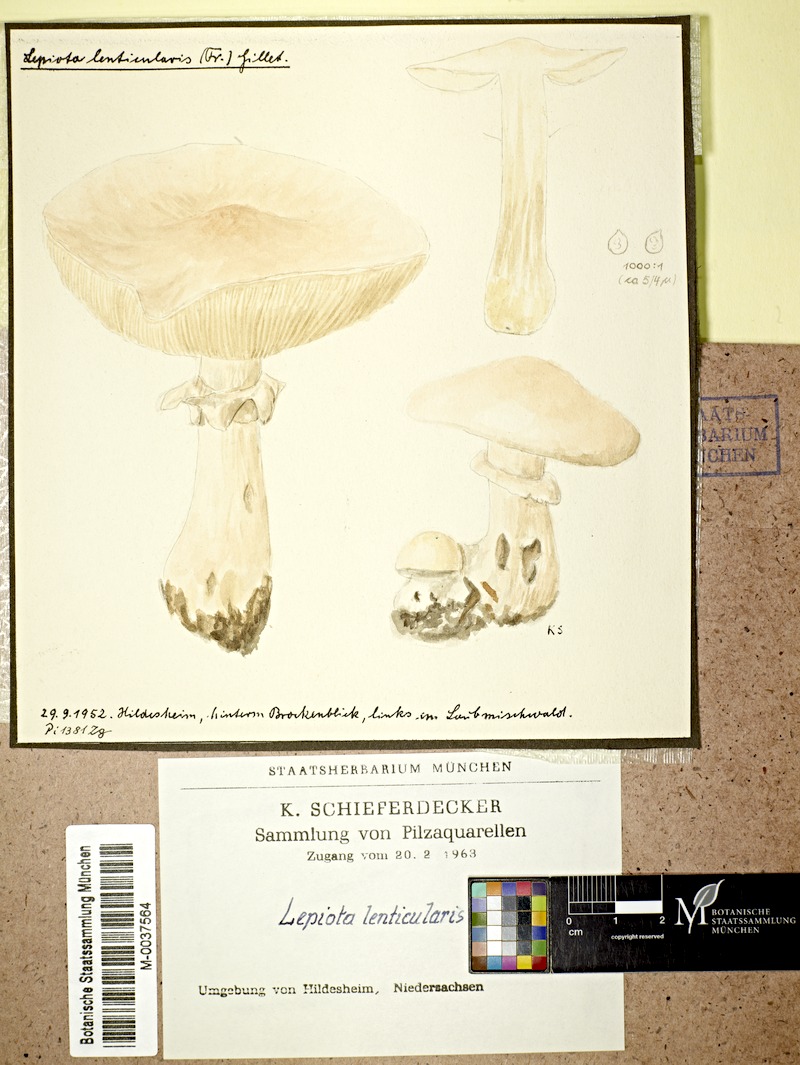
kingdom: Fungi
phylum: Basidiomycota
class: Agaricomycetes
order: Agaricales
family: Amanitaceae
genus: Limacellopsis
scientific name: Limacellopsis guttata
